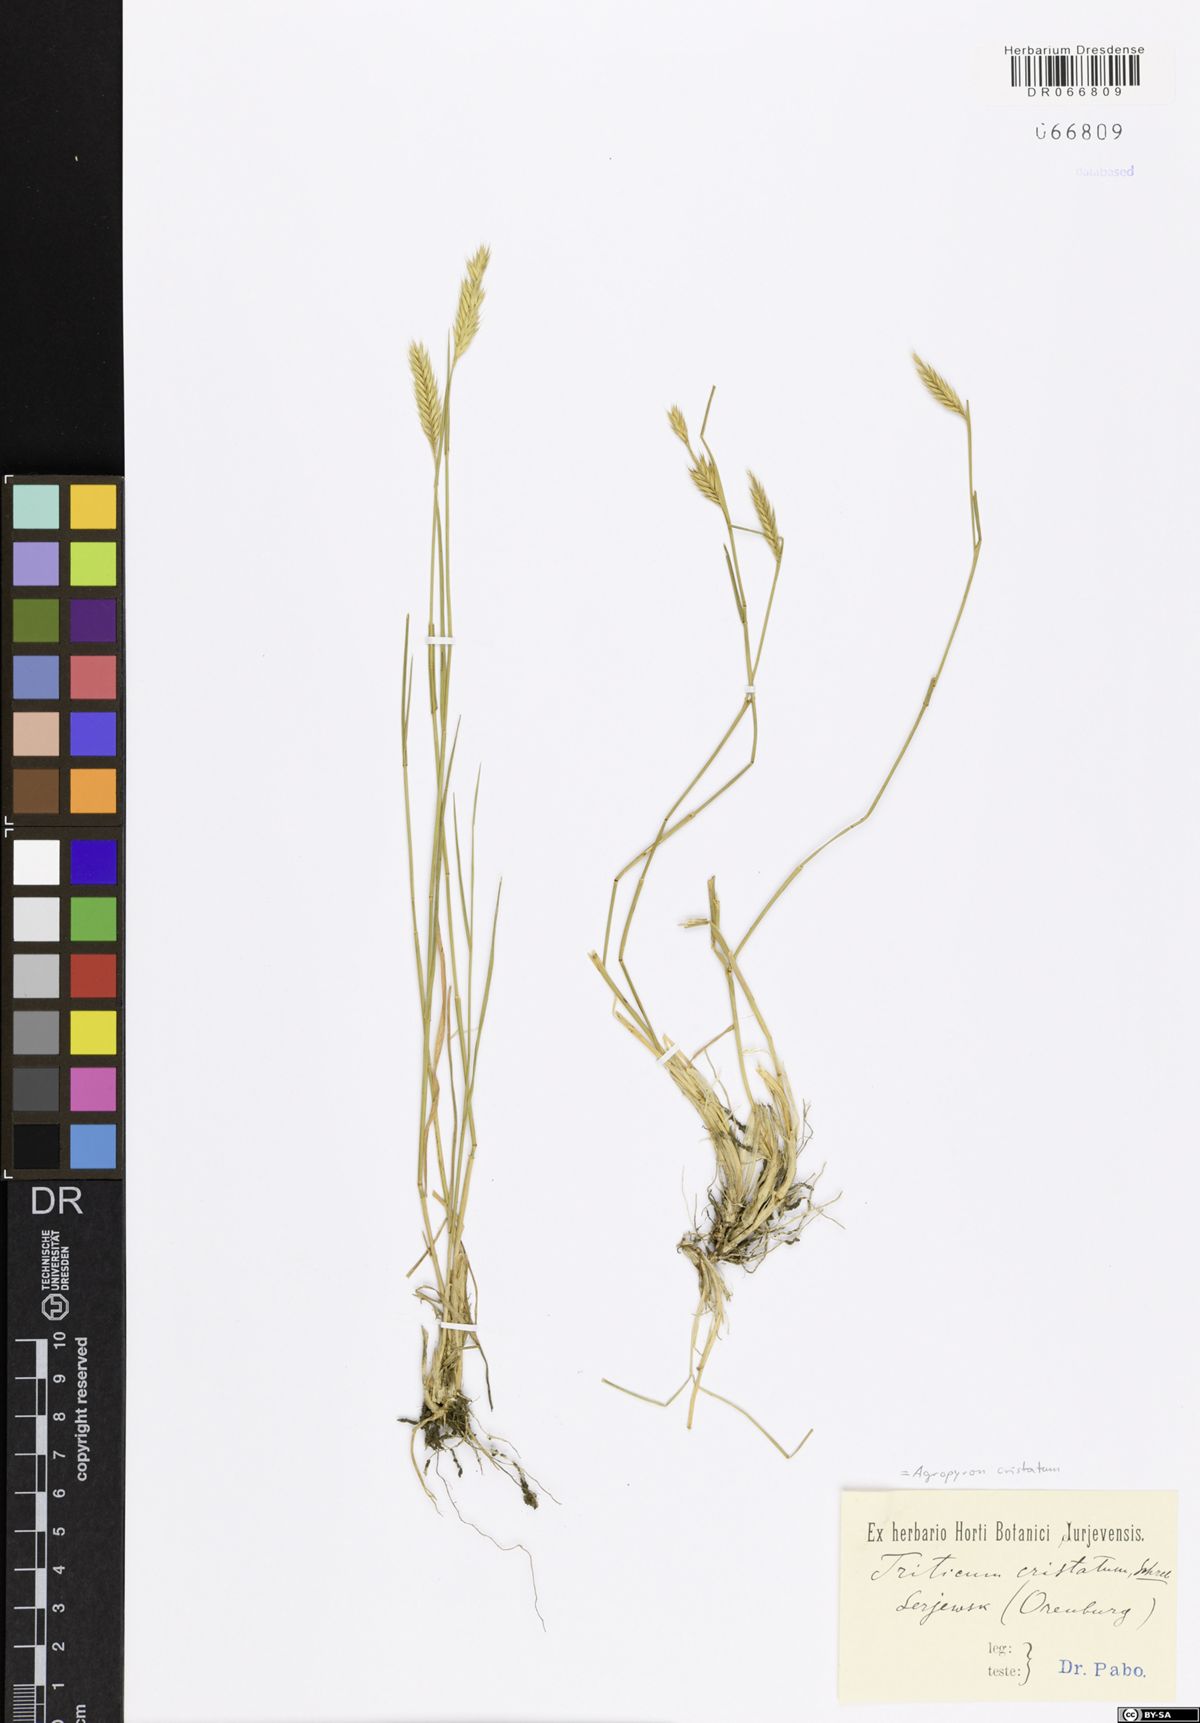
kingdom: Plantae
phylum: Tracheophyta
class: Liliopsida
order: Poales
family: Poaceae
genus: Agropyron
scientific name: Agropyron cristatum
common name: Crested wheatgrass
